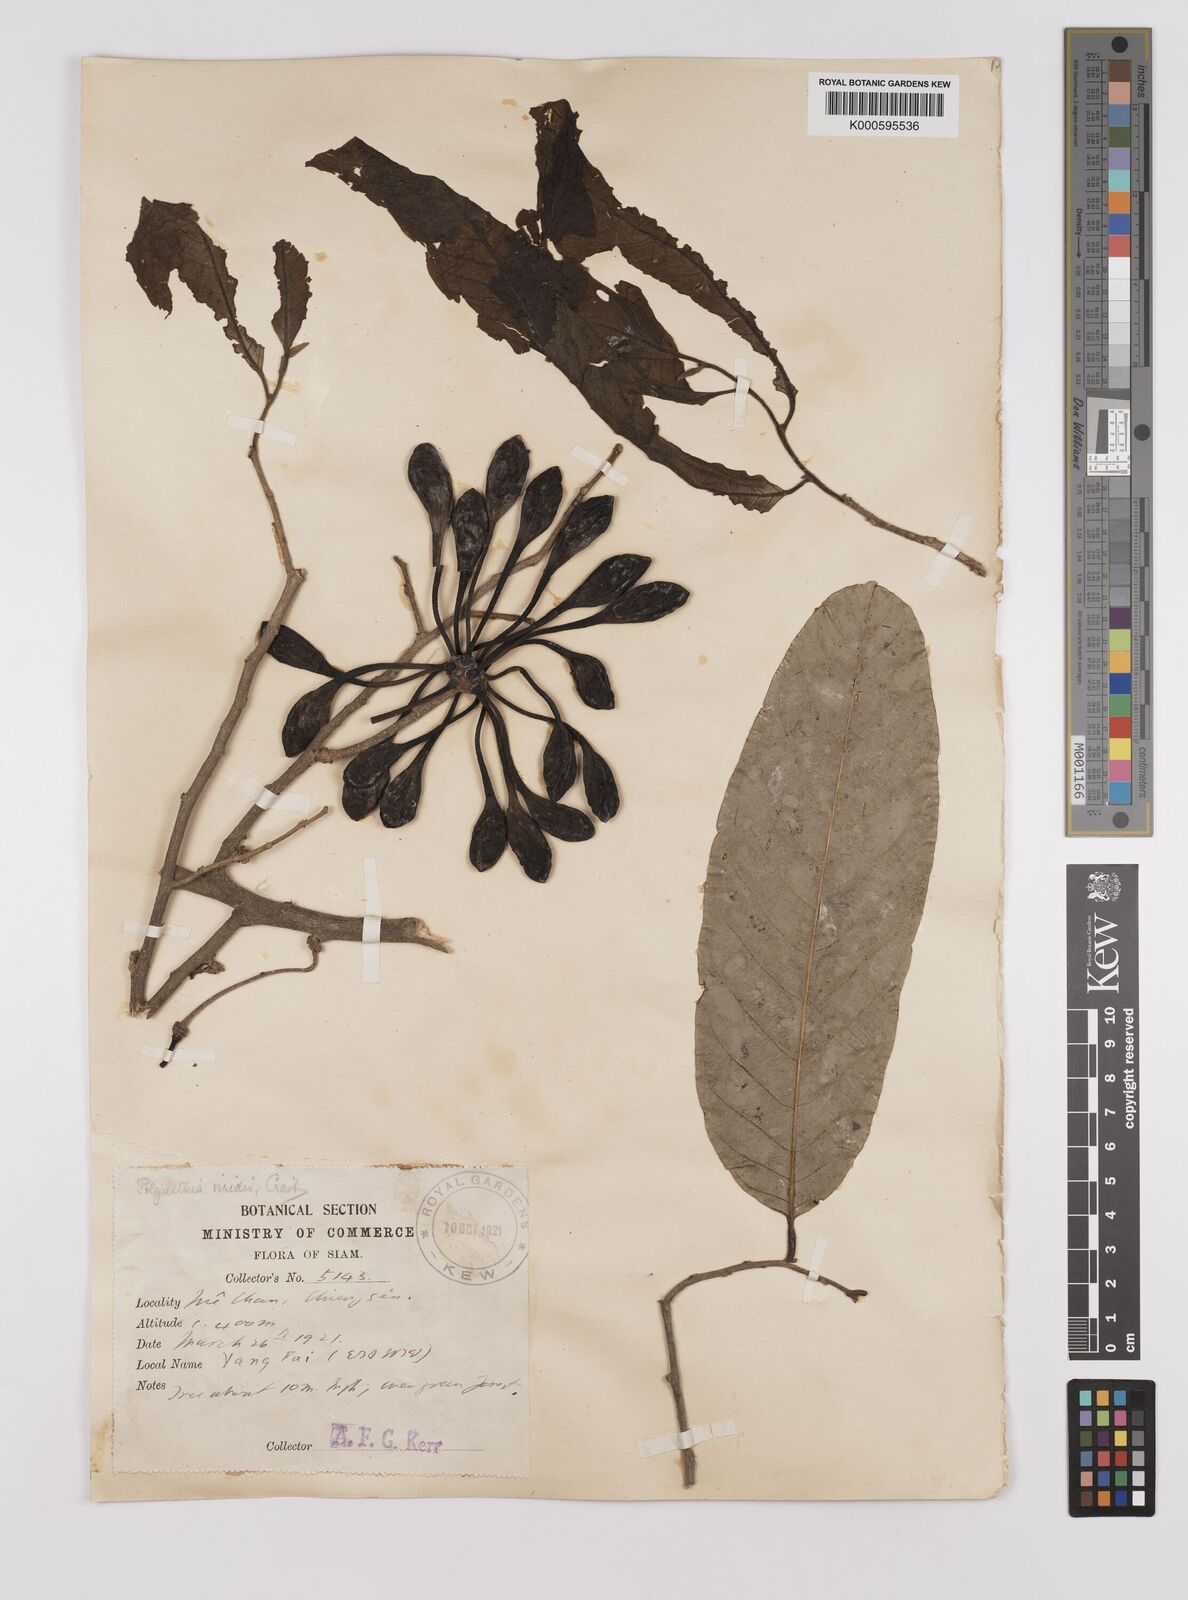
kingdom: Plantae
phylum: Tracheophyta
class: Magnoliopsida
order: Magnoliales
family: Annonaceae
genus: Polyalthia
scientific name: Polyalthia viridis
